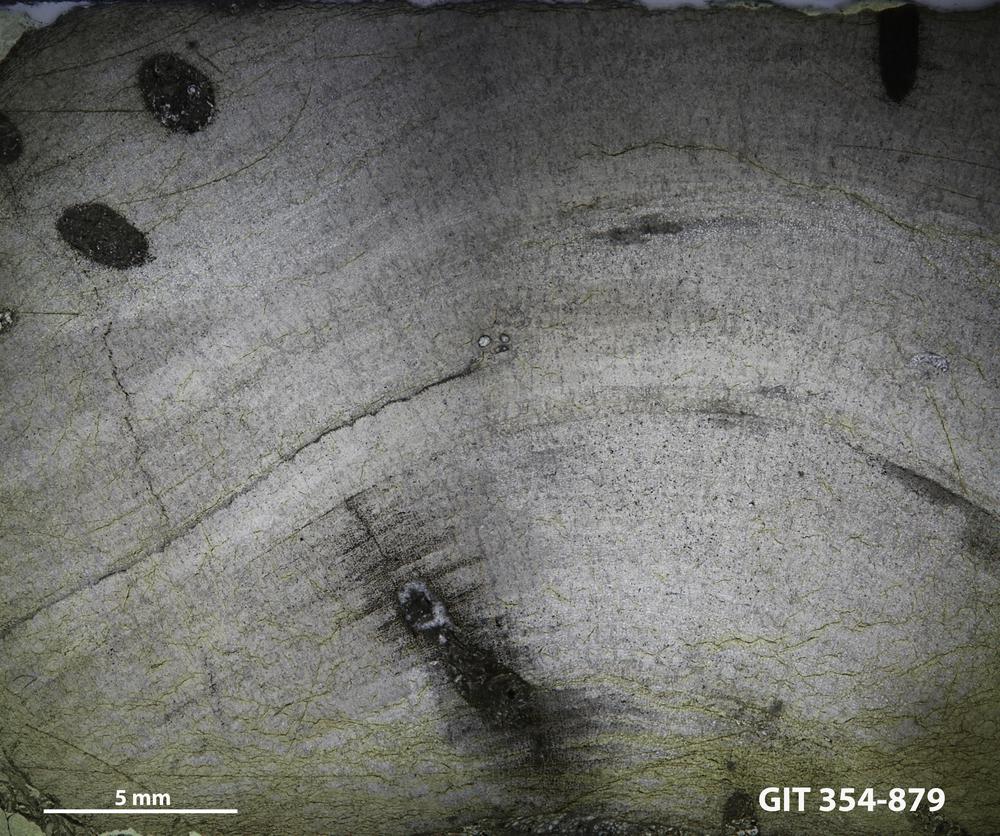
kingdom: Animalia
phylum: Porifera
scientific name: Porifera
